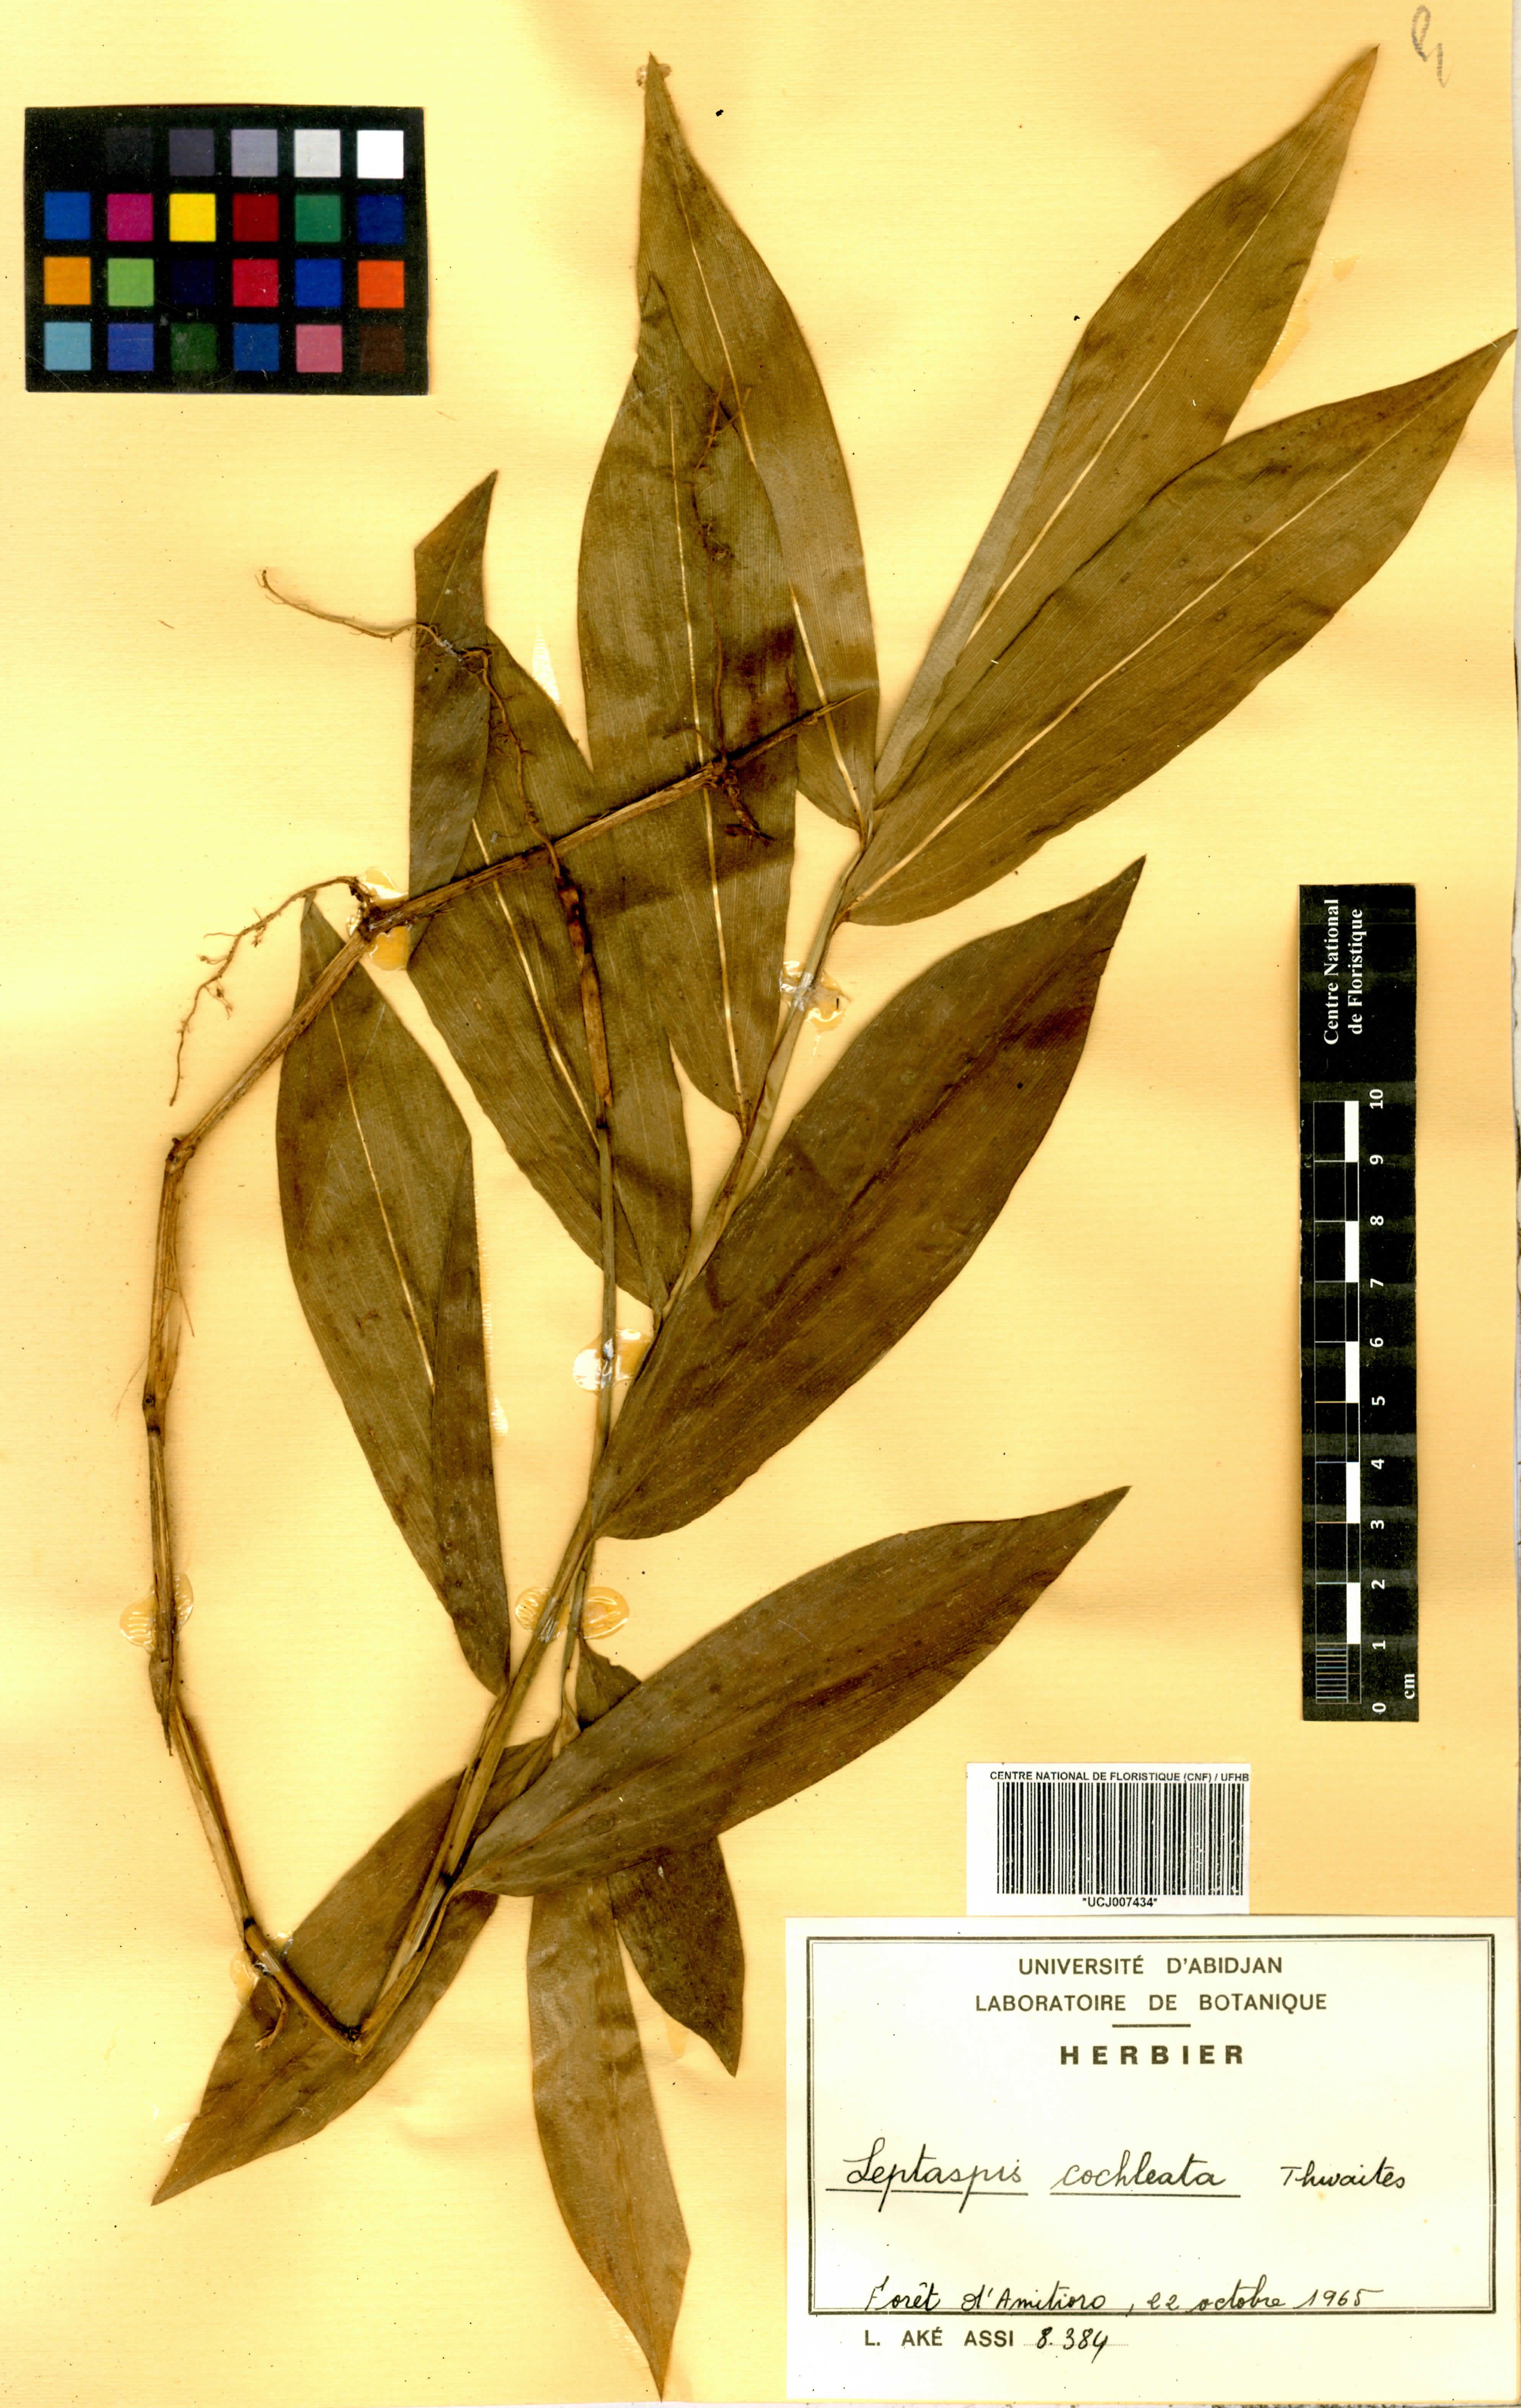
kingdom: Plantae
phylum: Tracheophyta
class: Liliopsida
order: Poales
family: Poaceae
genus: Leptaspis
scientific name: Leptaspis zeylanica
